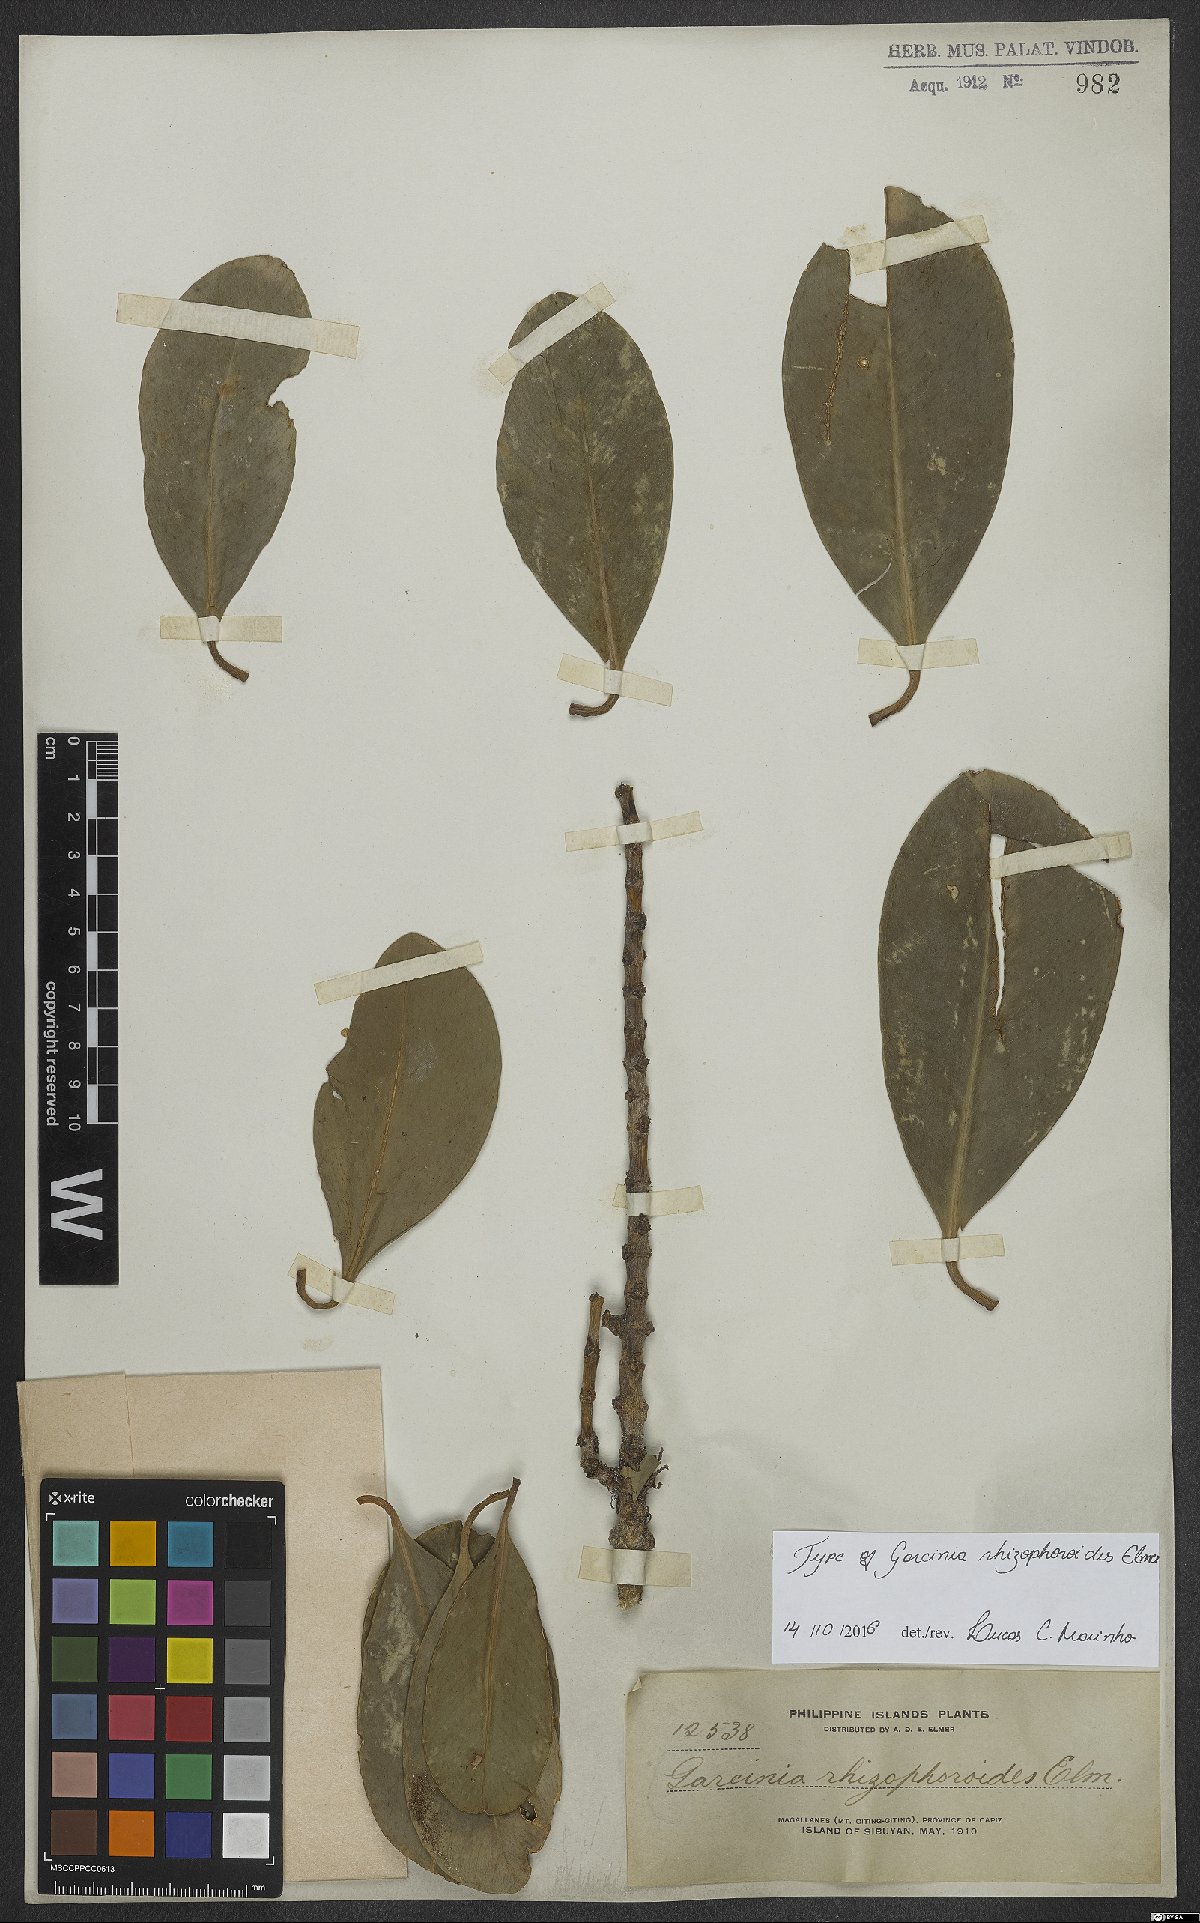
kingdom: Plantae
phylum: Tracheophyta
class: Magnoliopsida
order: Malpighiales
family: Clusiaceae
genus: Garcinia
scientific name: Garcinia rhizophoroides
